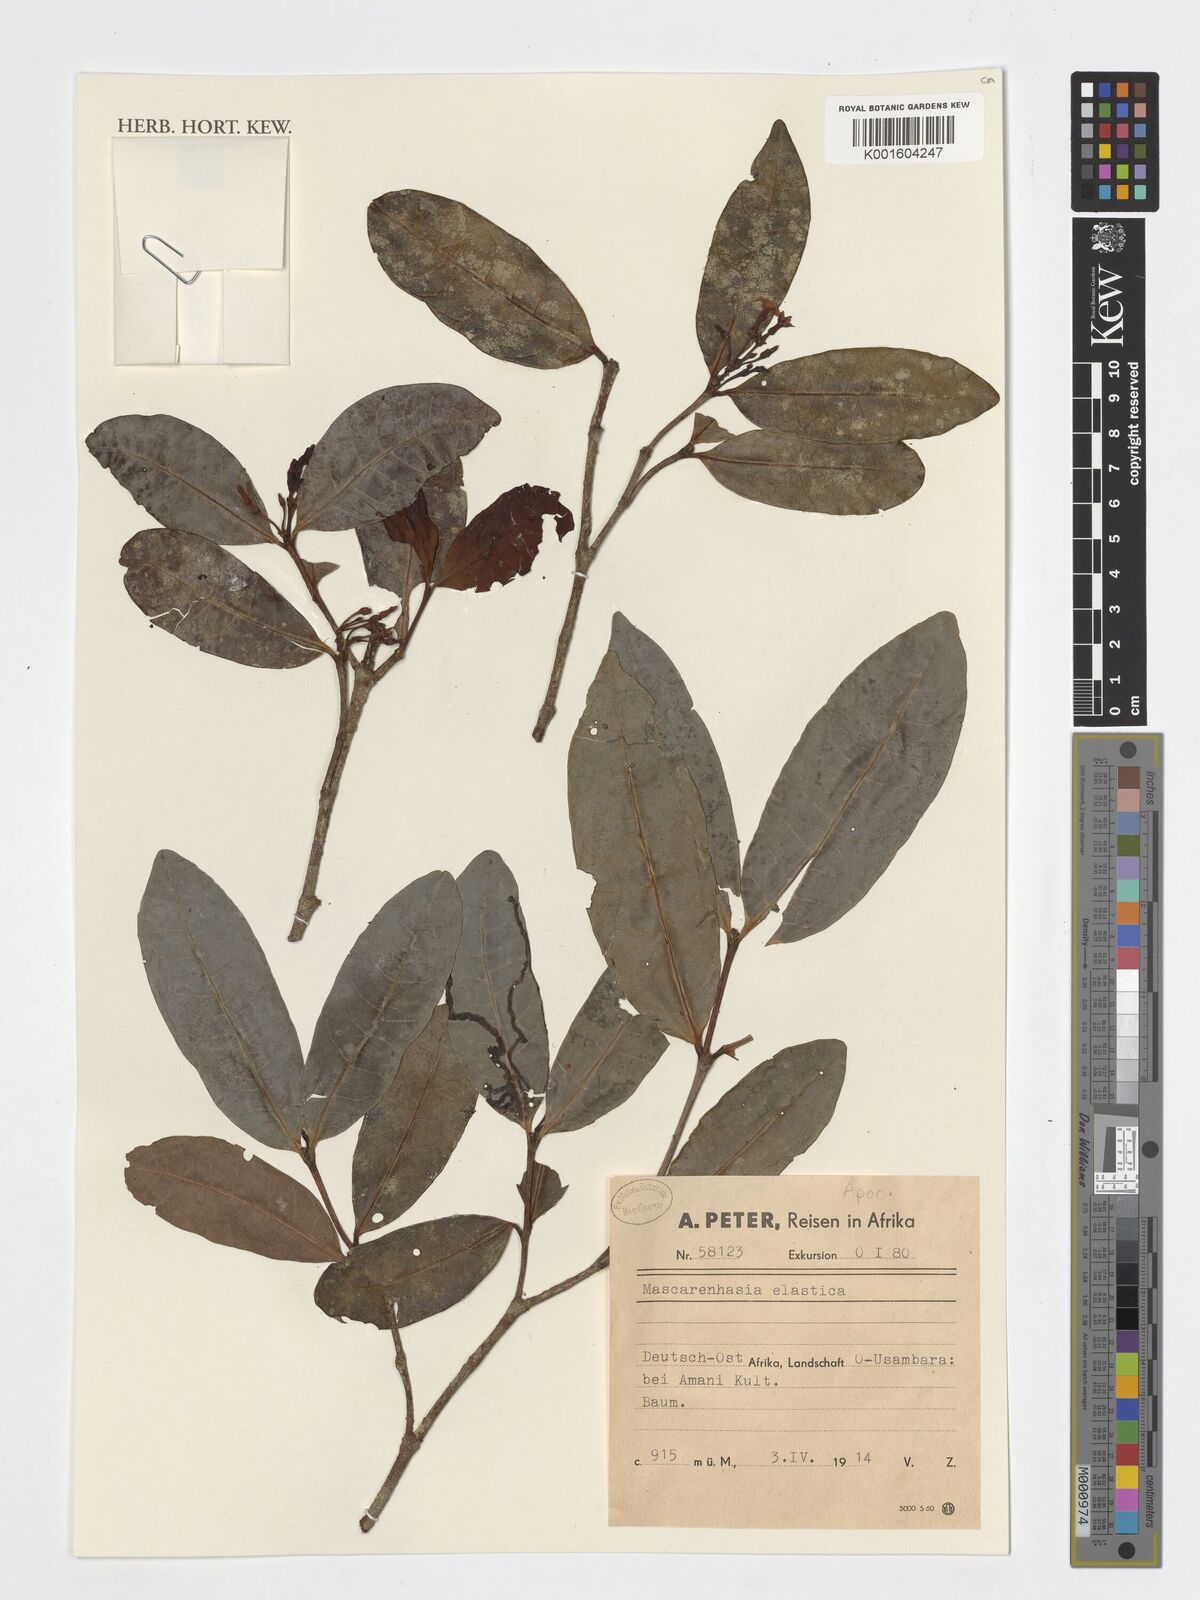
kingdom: Plantae
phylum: Tracheophyta
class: Magnoliopsida
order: Gentianales
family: Apocynaceae
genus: Mascarenhasia
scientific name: Mascarenhasia arborescens
